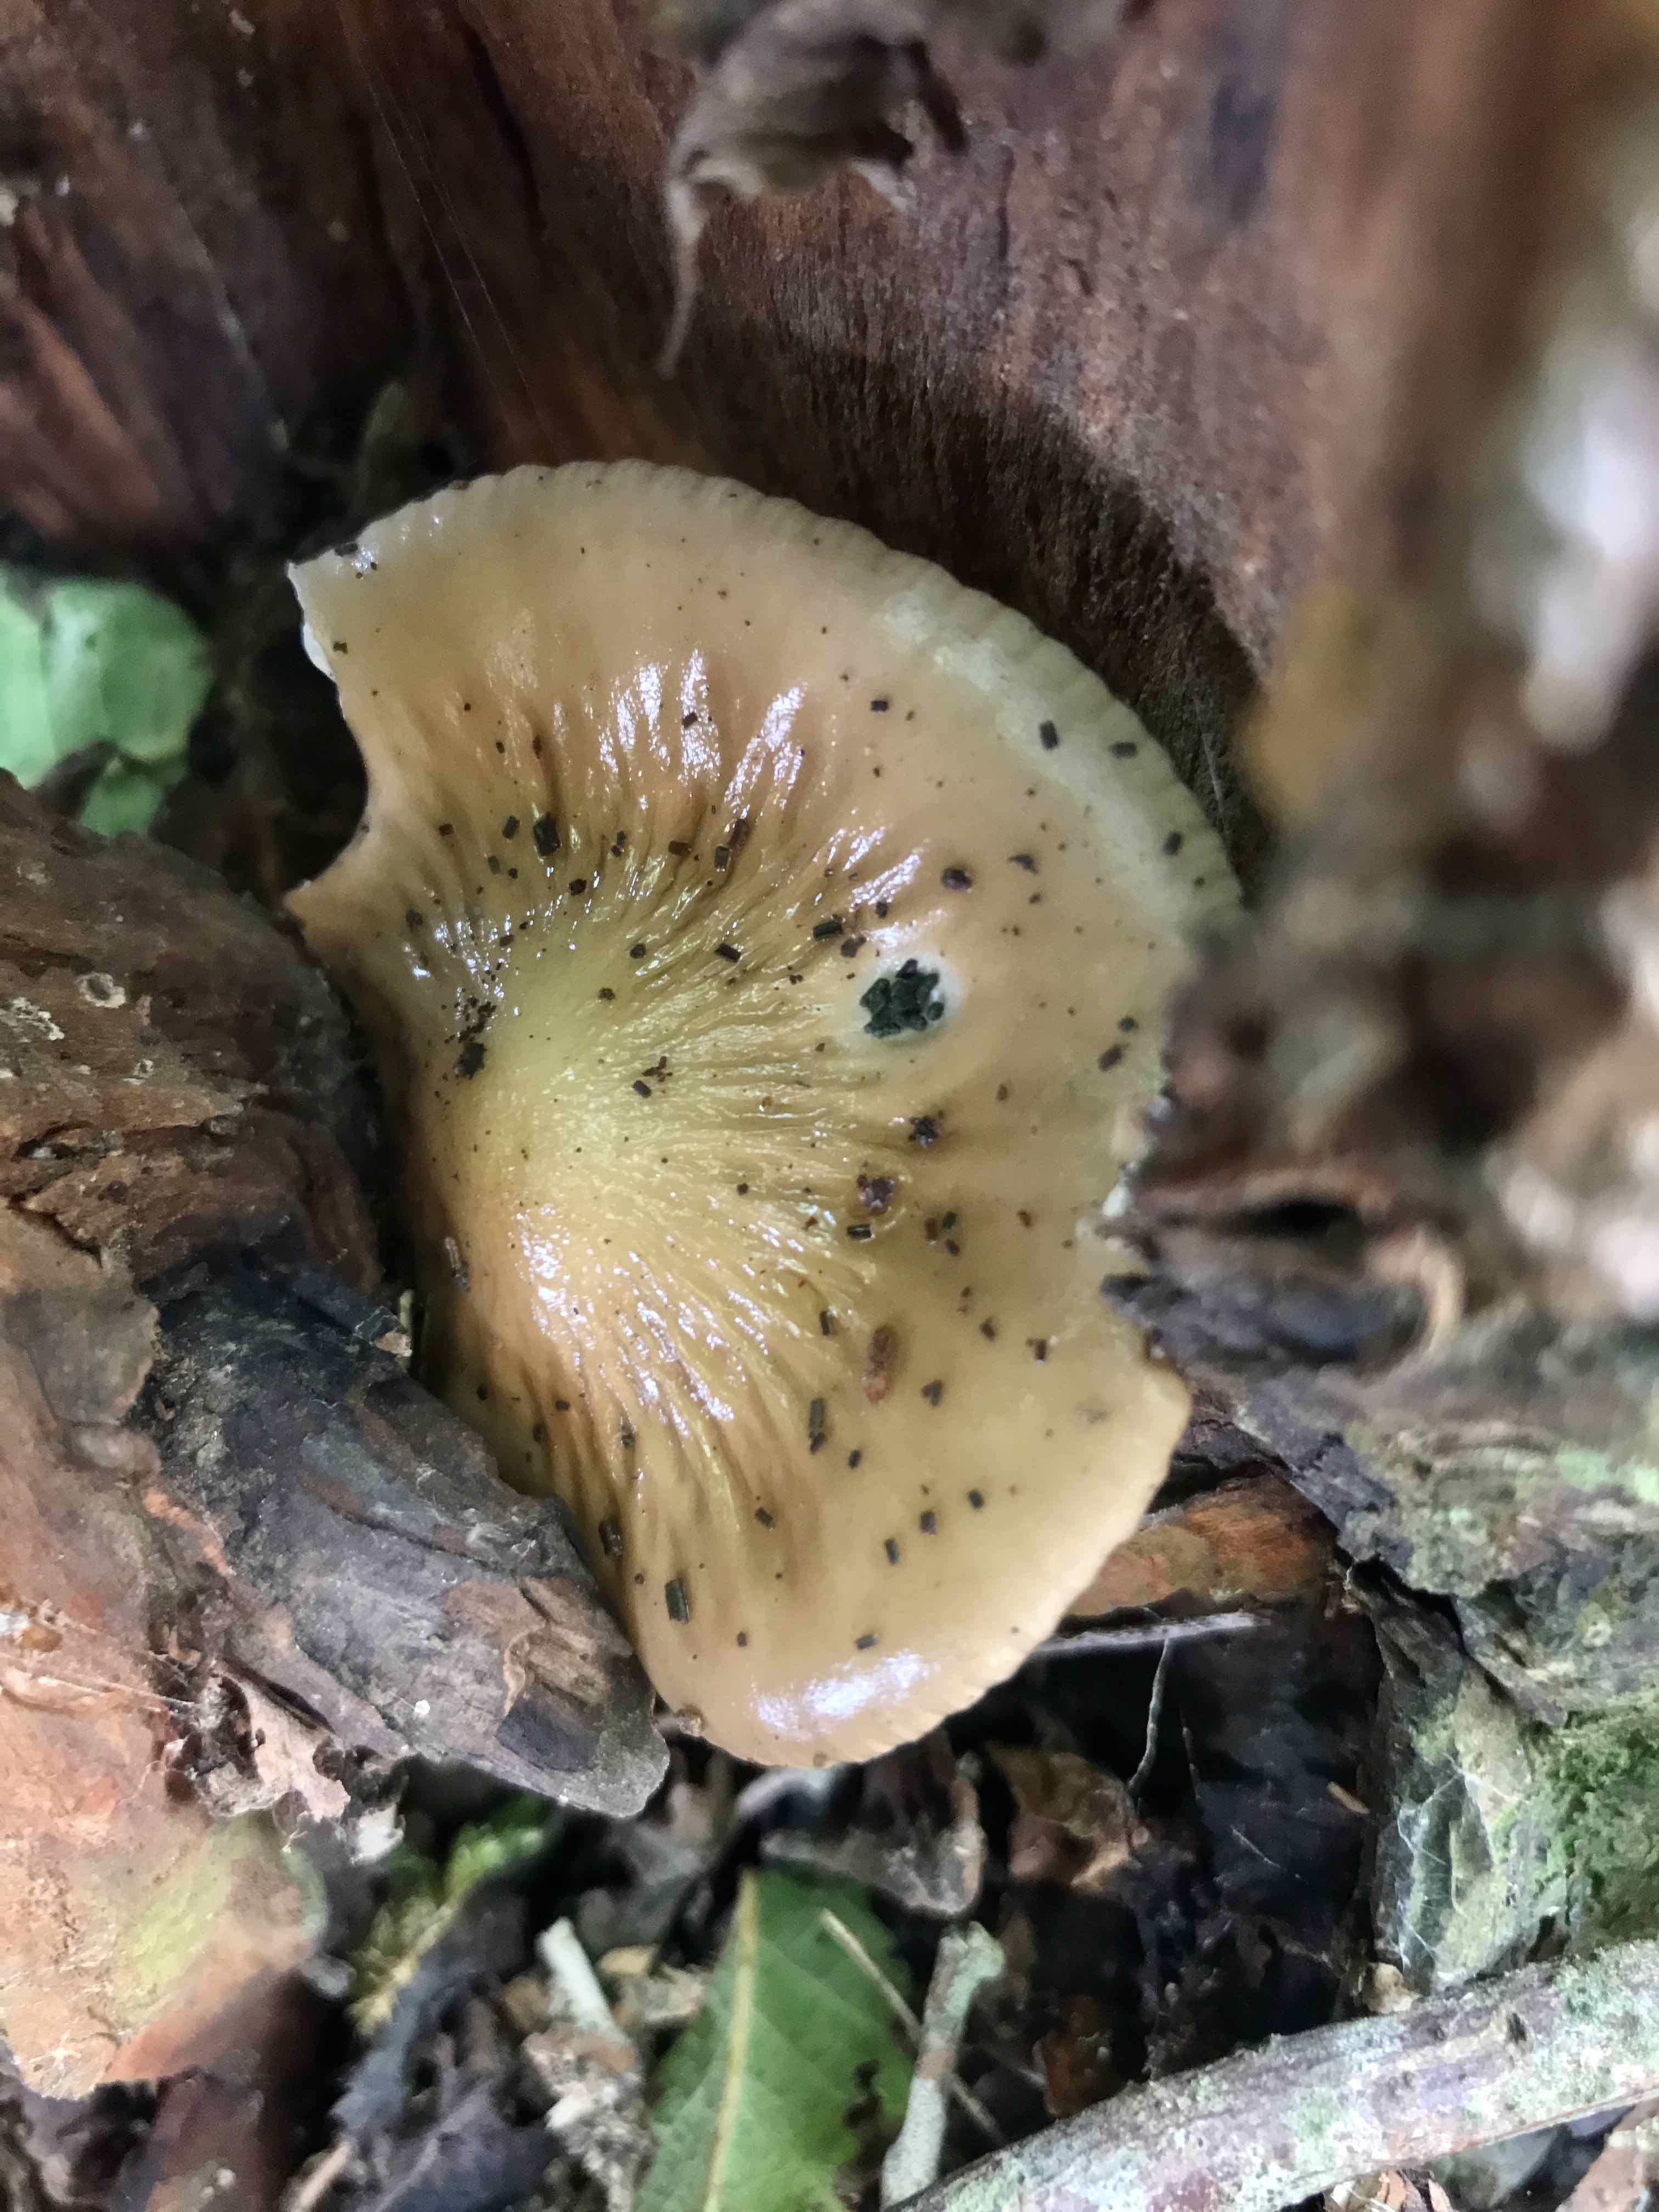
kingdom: Fungi
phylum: Basidiomycota
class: Agaricomycetes
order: Agaricales
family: Physalacriaceae
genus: Hymenopellis
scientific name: Hymenopellis radicata
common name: almindelig pælerodshat
